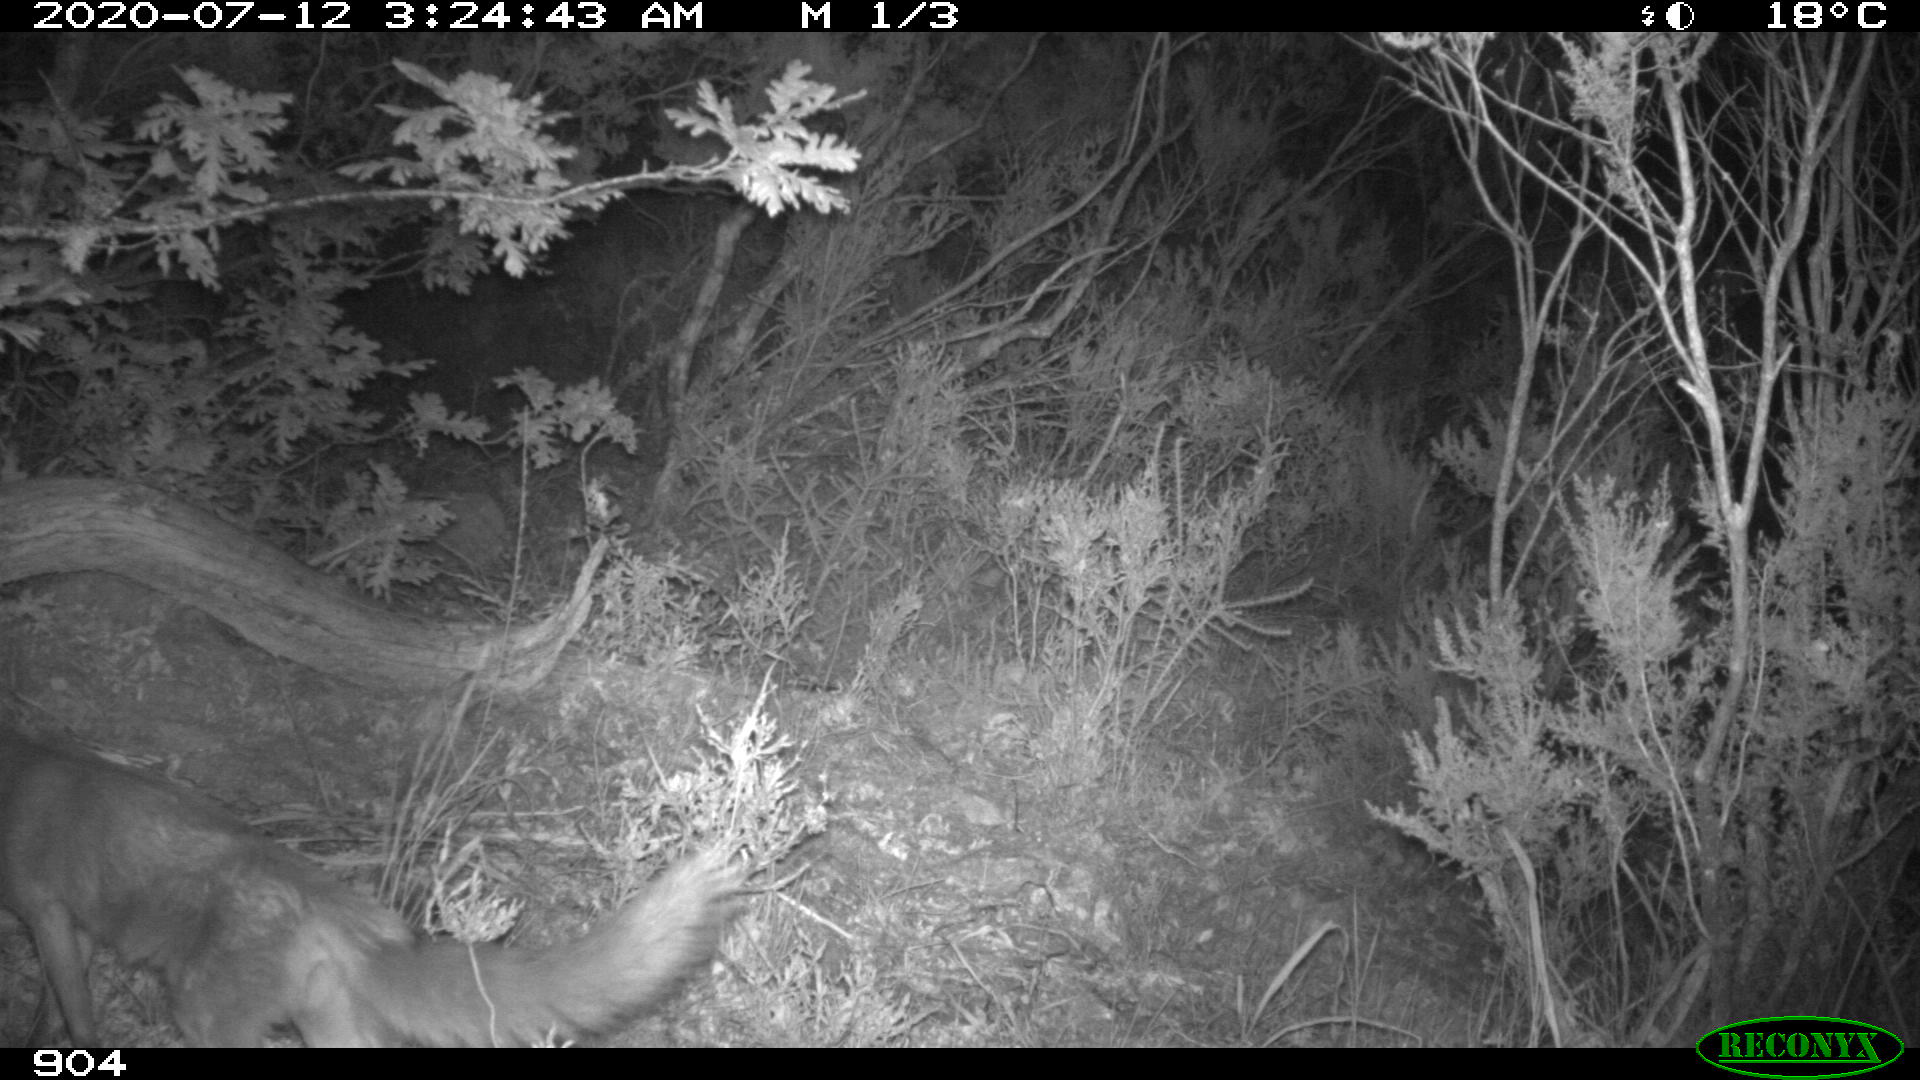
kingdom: Animalia
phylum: Chordata
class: Mammalia
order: Carnivora
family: Canidae
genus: Vulpes
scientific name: Vulpes vulpes
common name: Red fox
